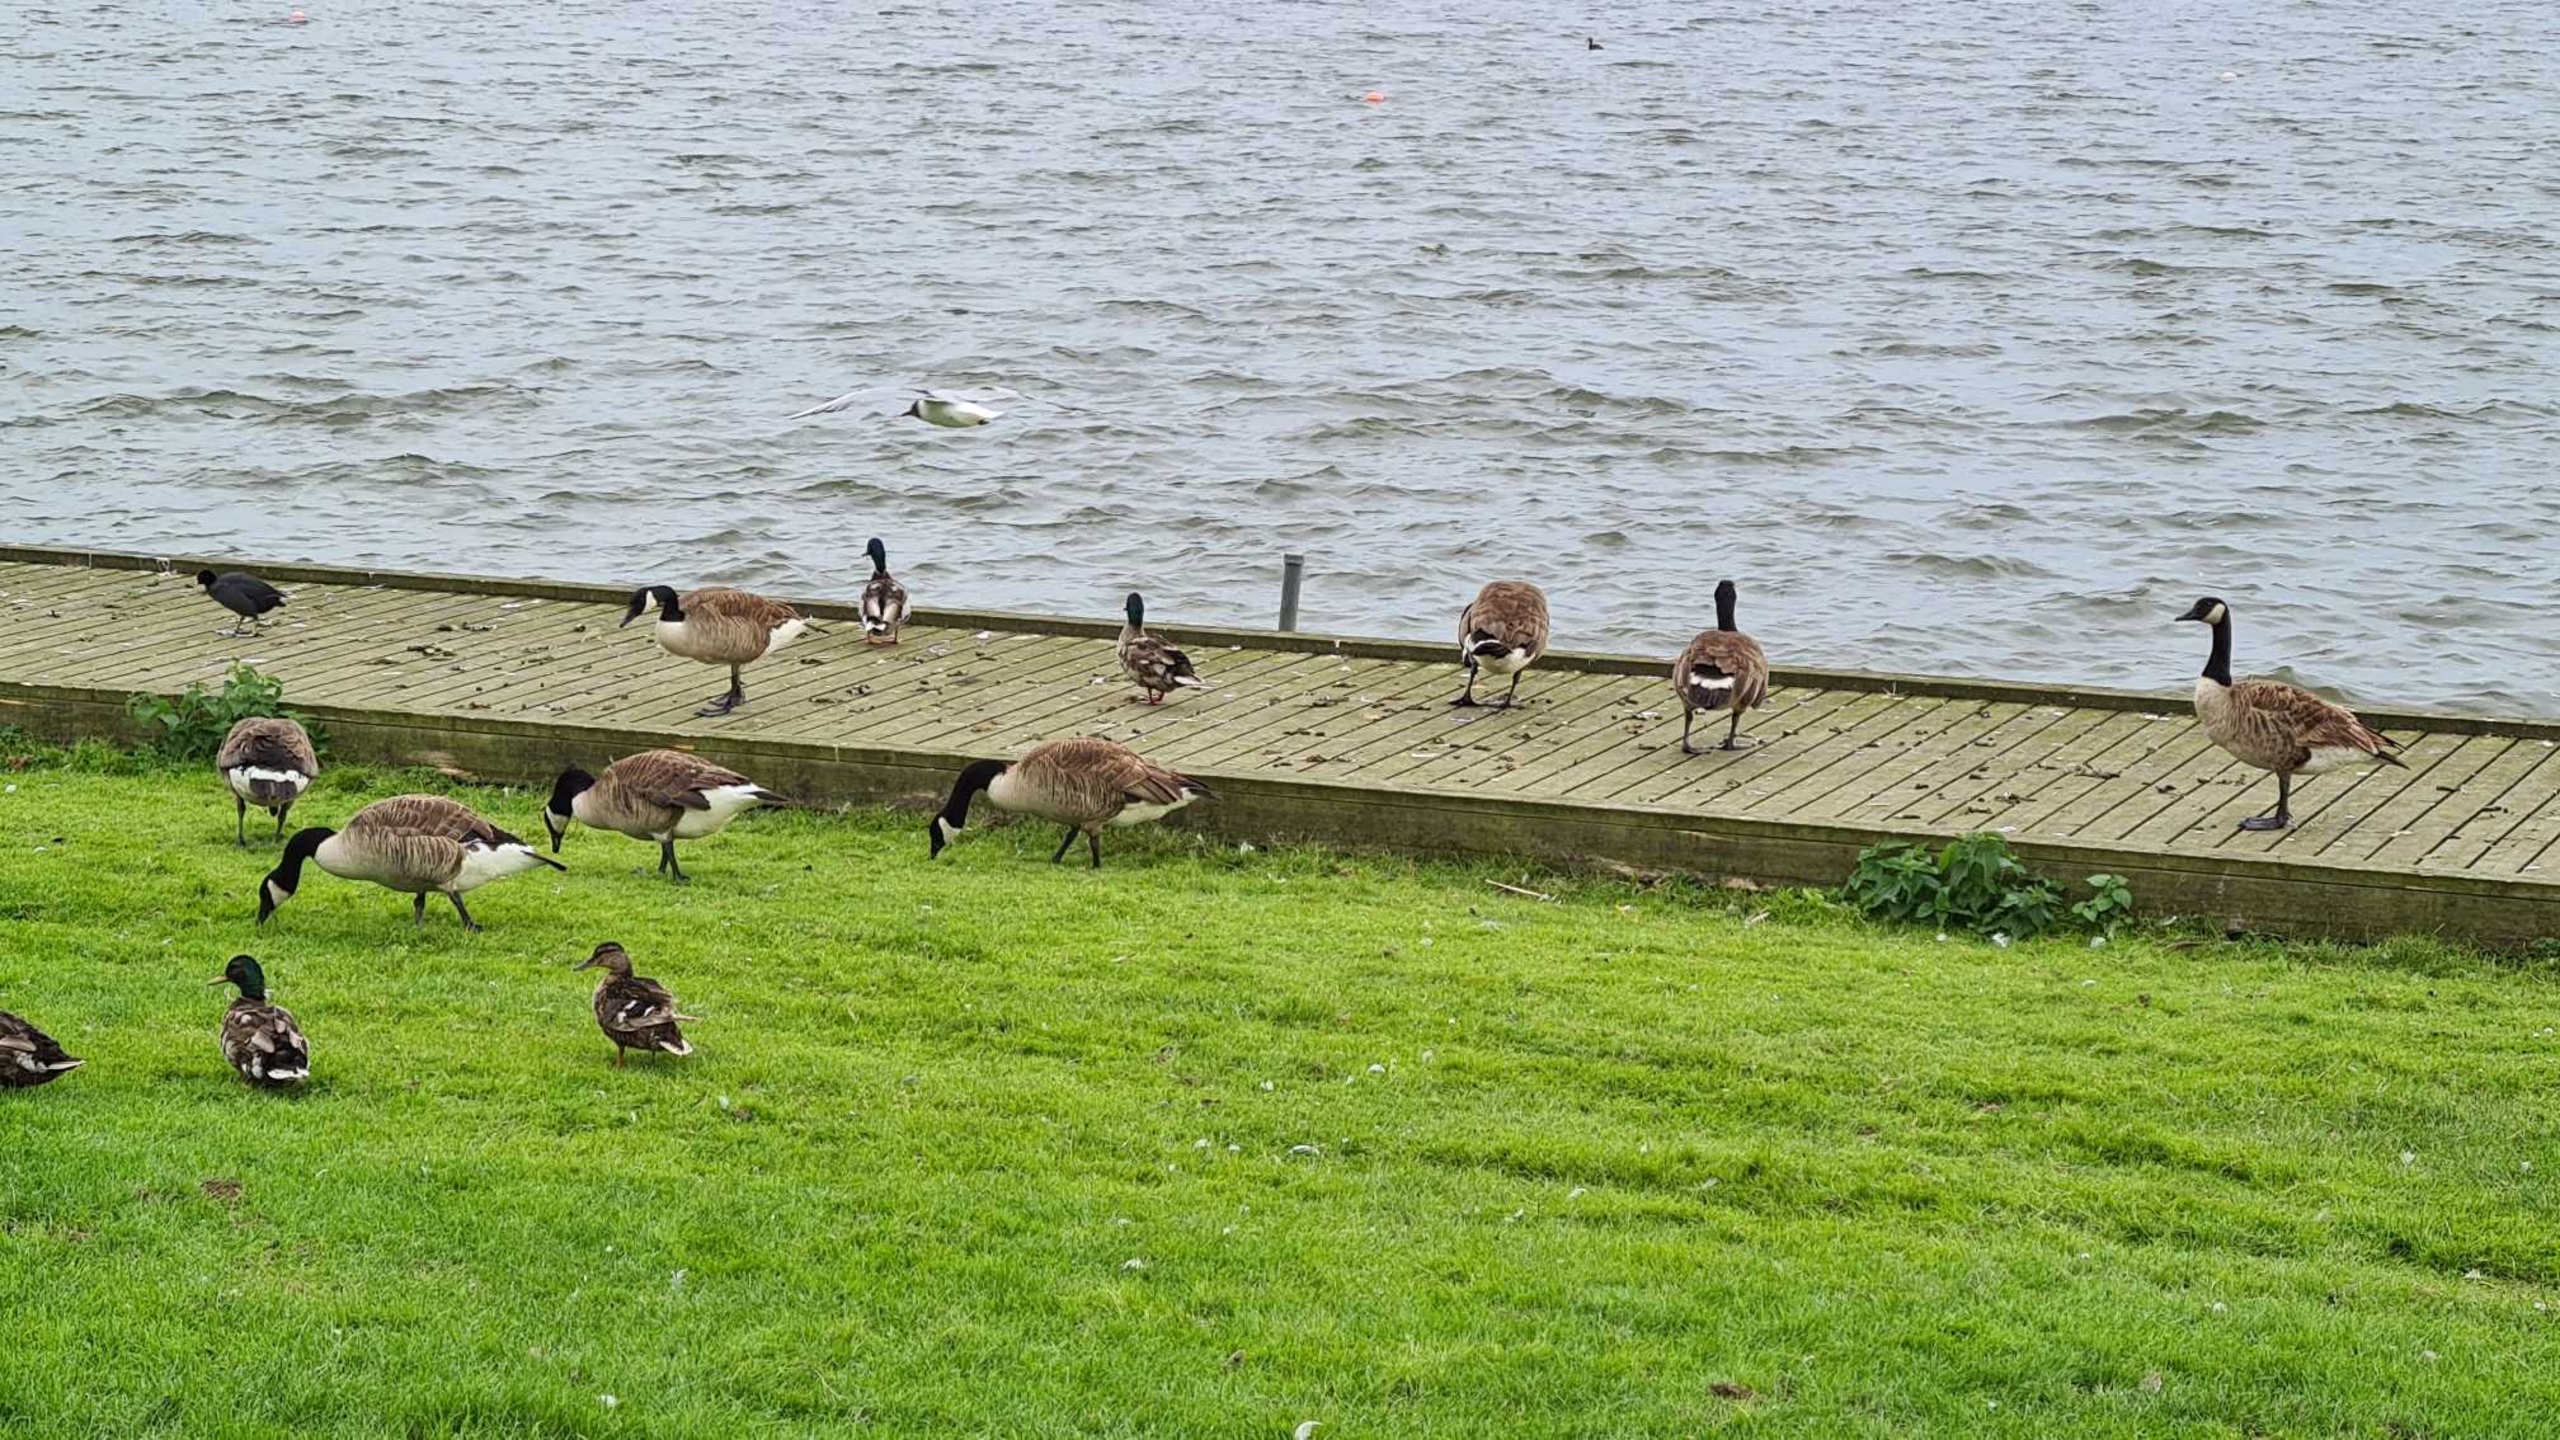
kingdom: Animalia
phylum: Chordata
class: Aves
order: Anseriformes
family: Anatidae
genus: Branta
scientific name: Branta canadensis
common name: Canadagås
